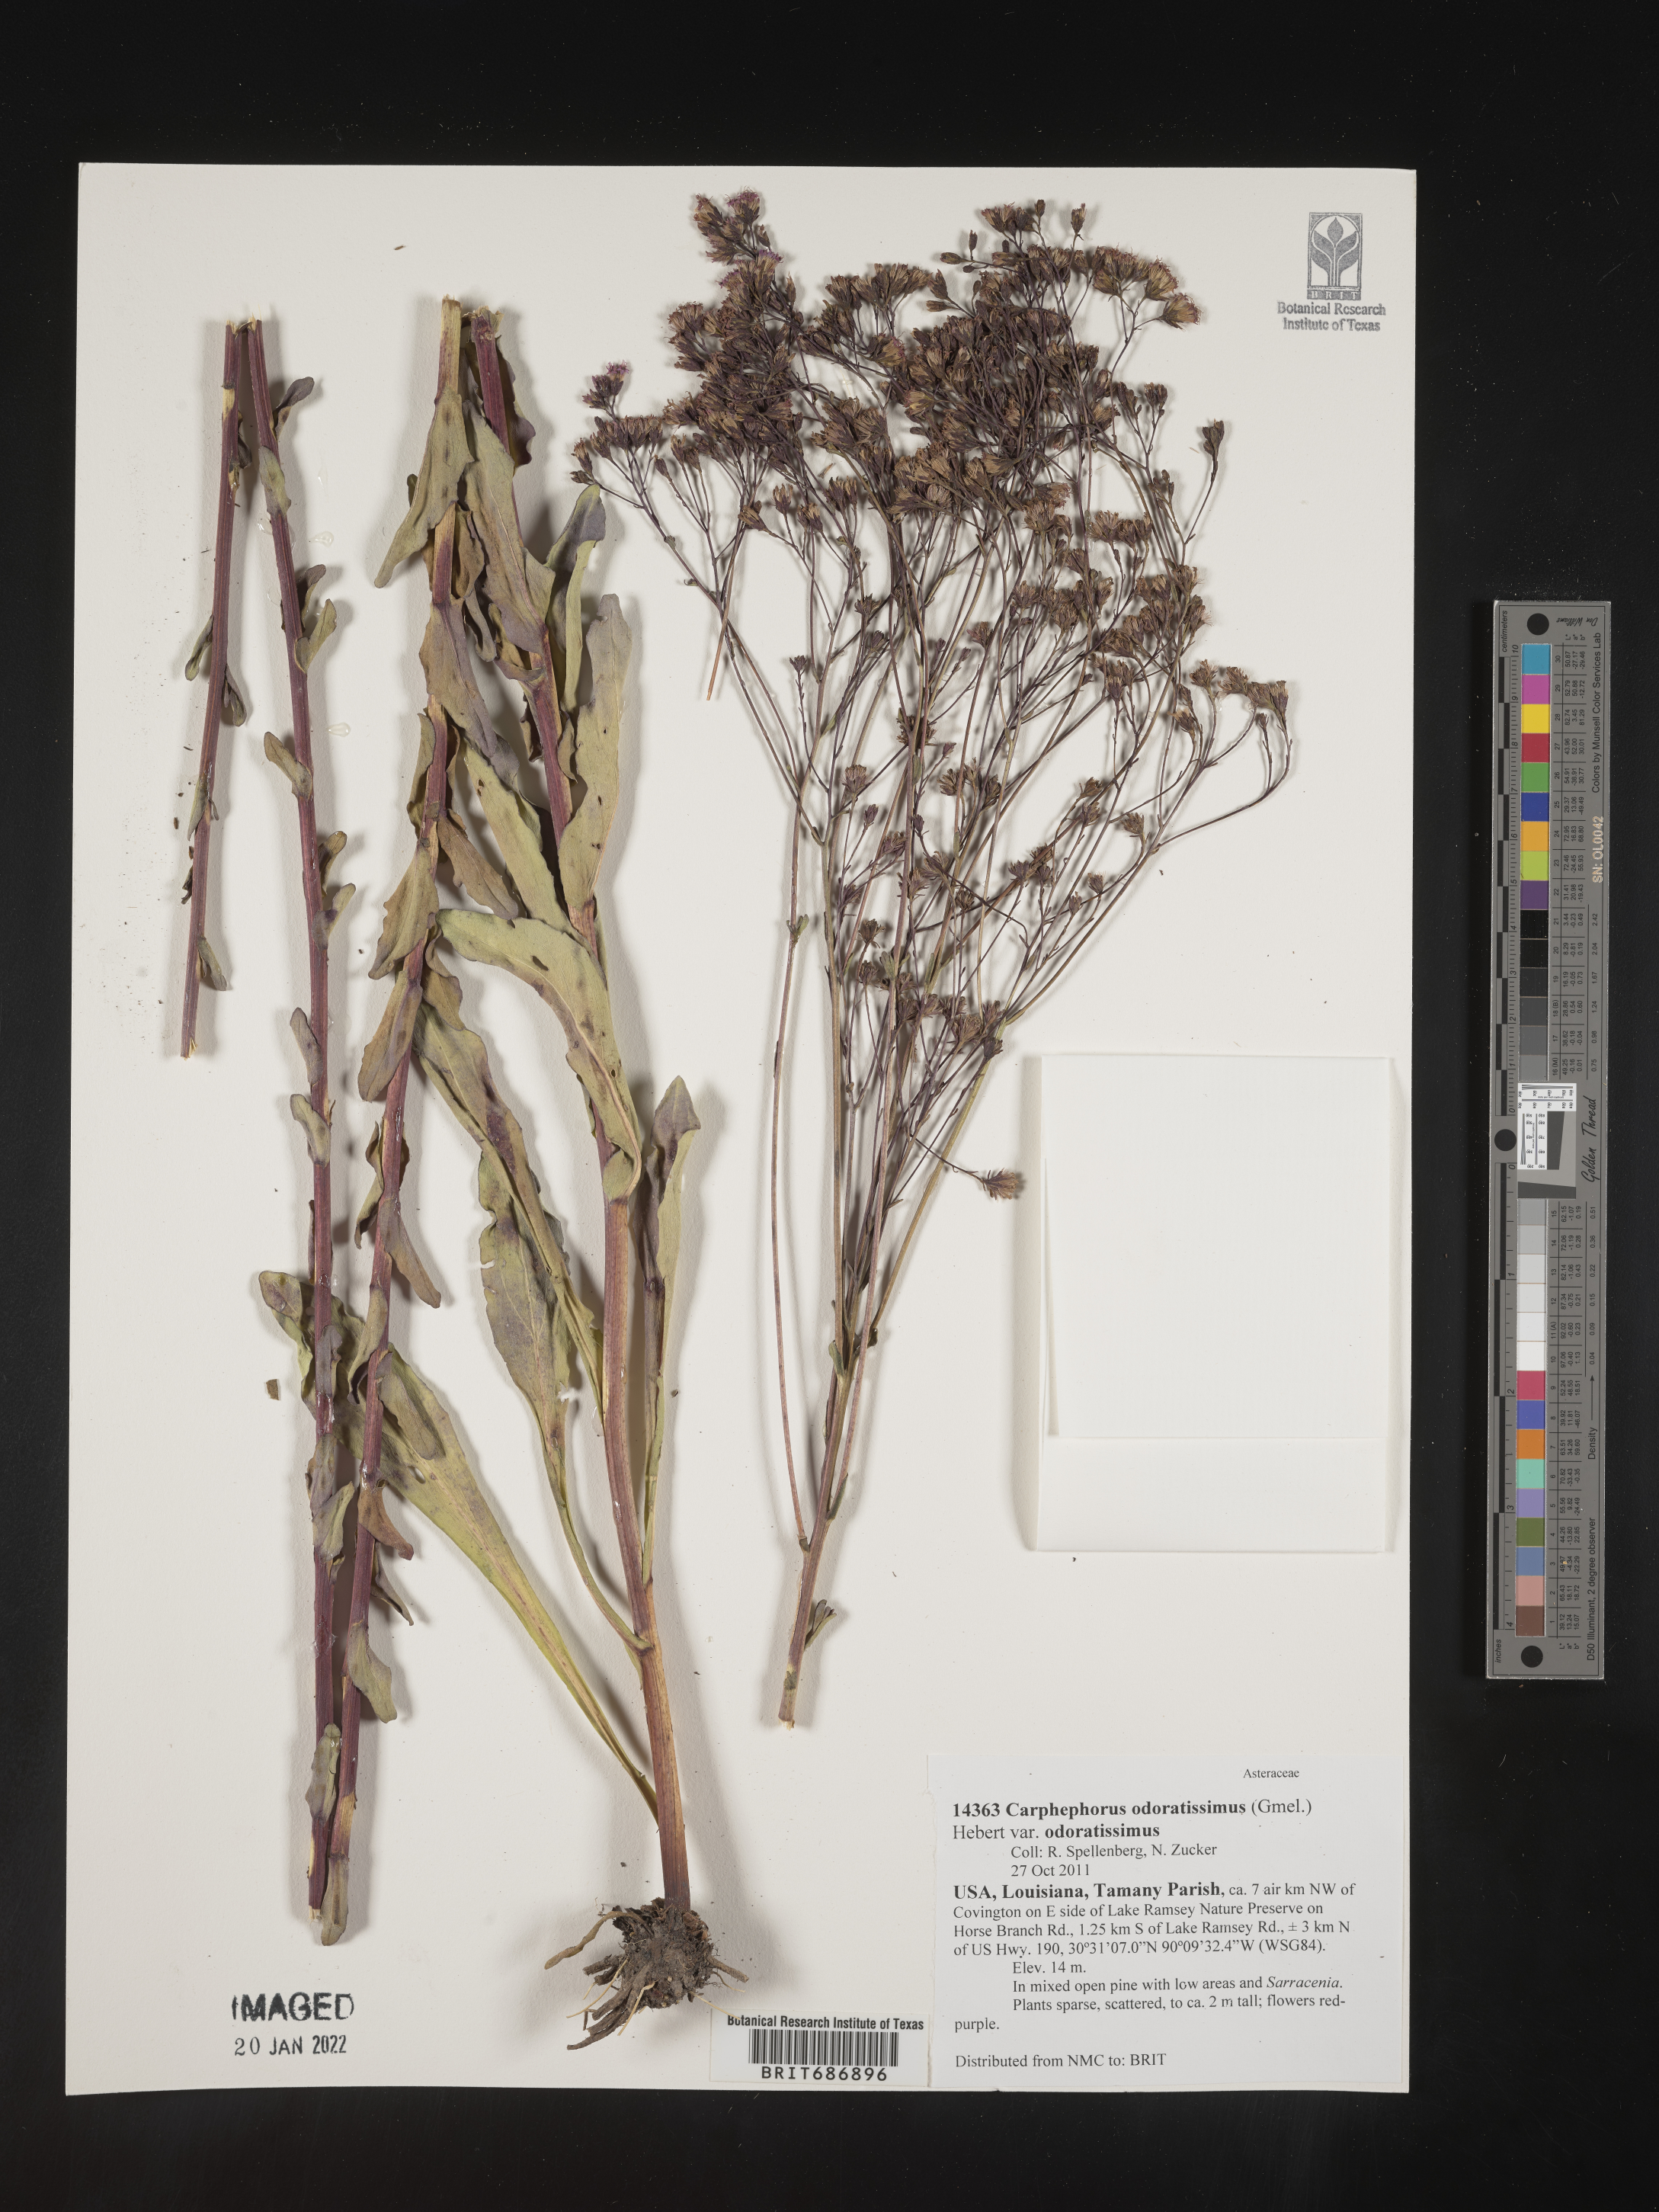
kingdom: Plantae
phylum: Tracheophyta
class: Magnoliopsida
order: Asterales
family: Asteraceae
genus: Carphephorus
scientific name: Carphephorus odoratissimus
